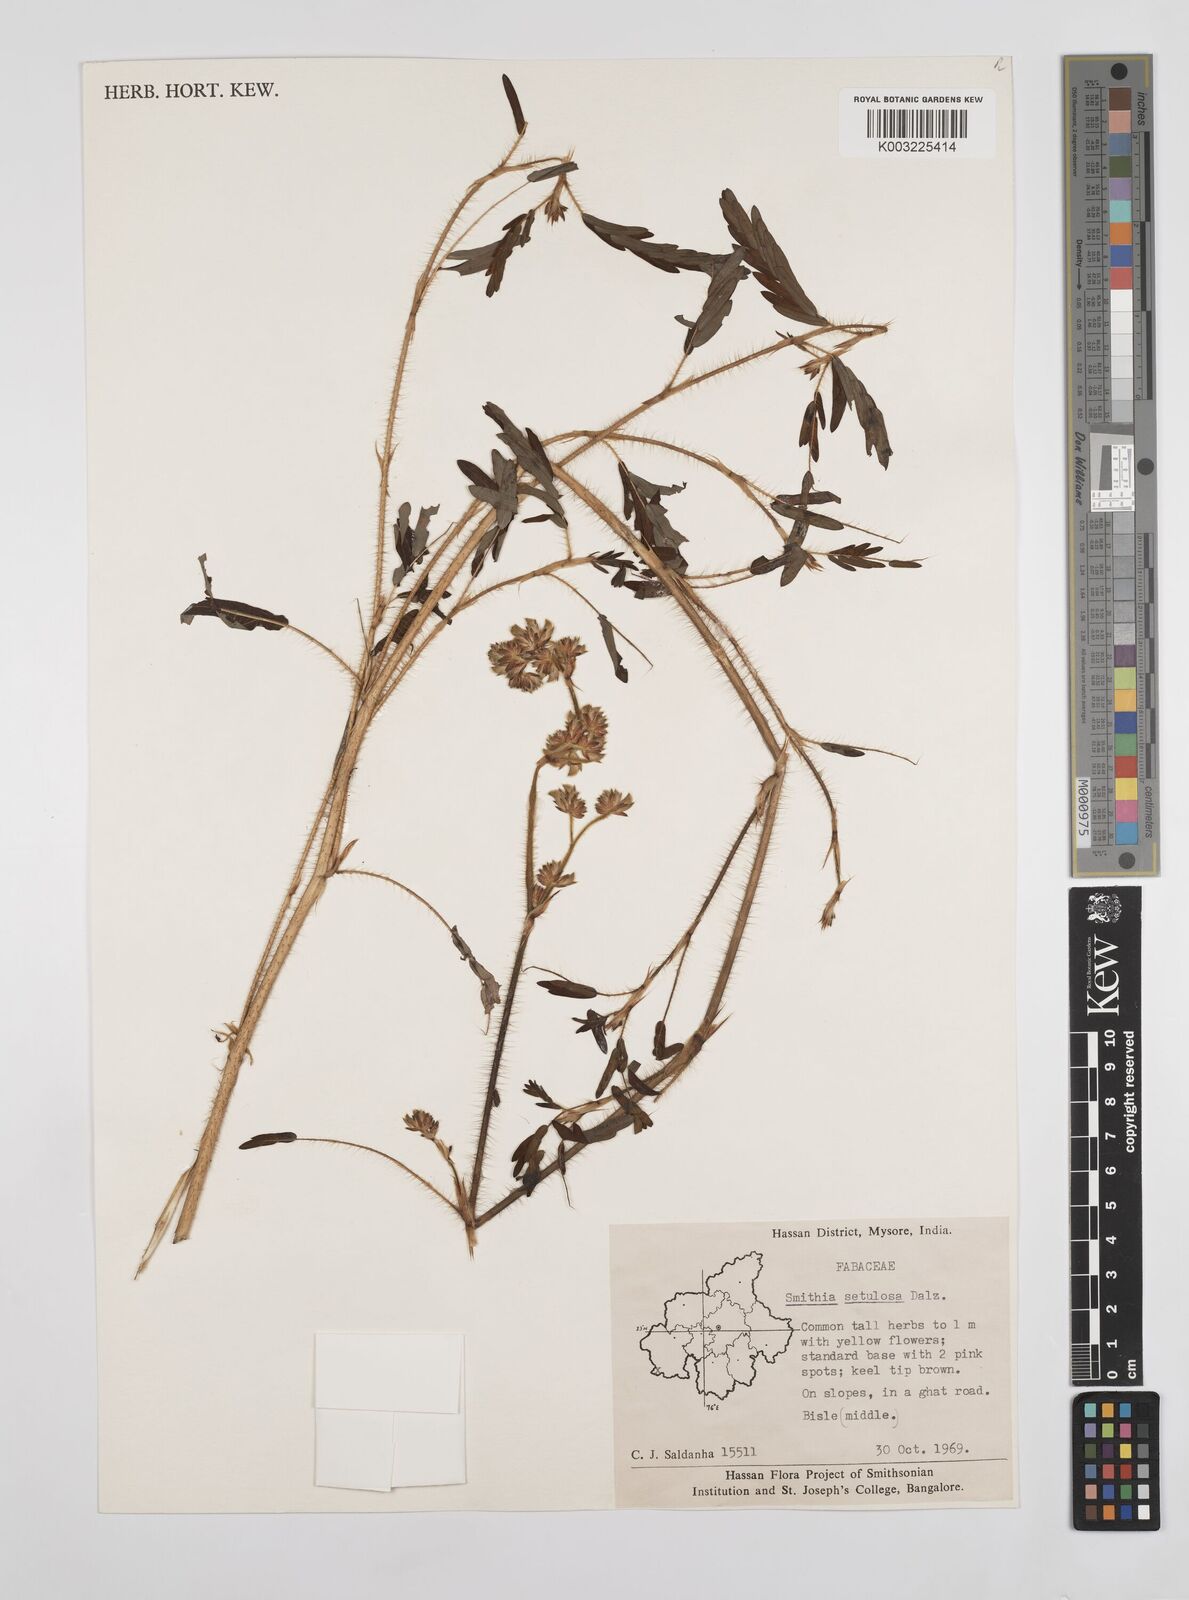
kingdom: Plantae
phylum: Tracheophyta
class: Magnoliopsida
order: Fabales
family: Fabaceae
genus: Smithia
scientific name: Smithia setulosa
